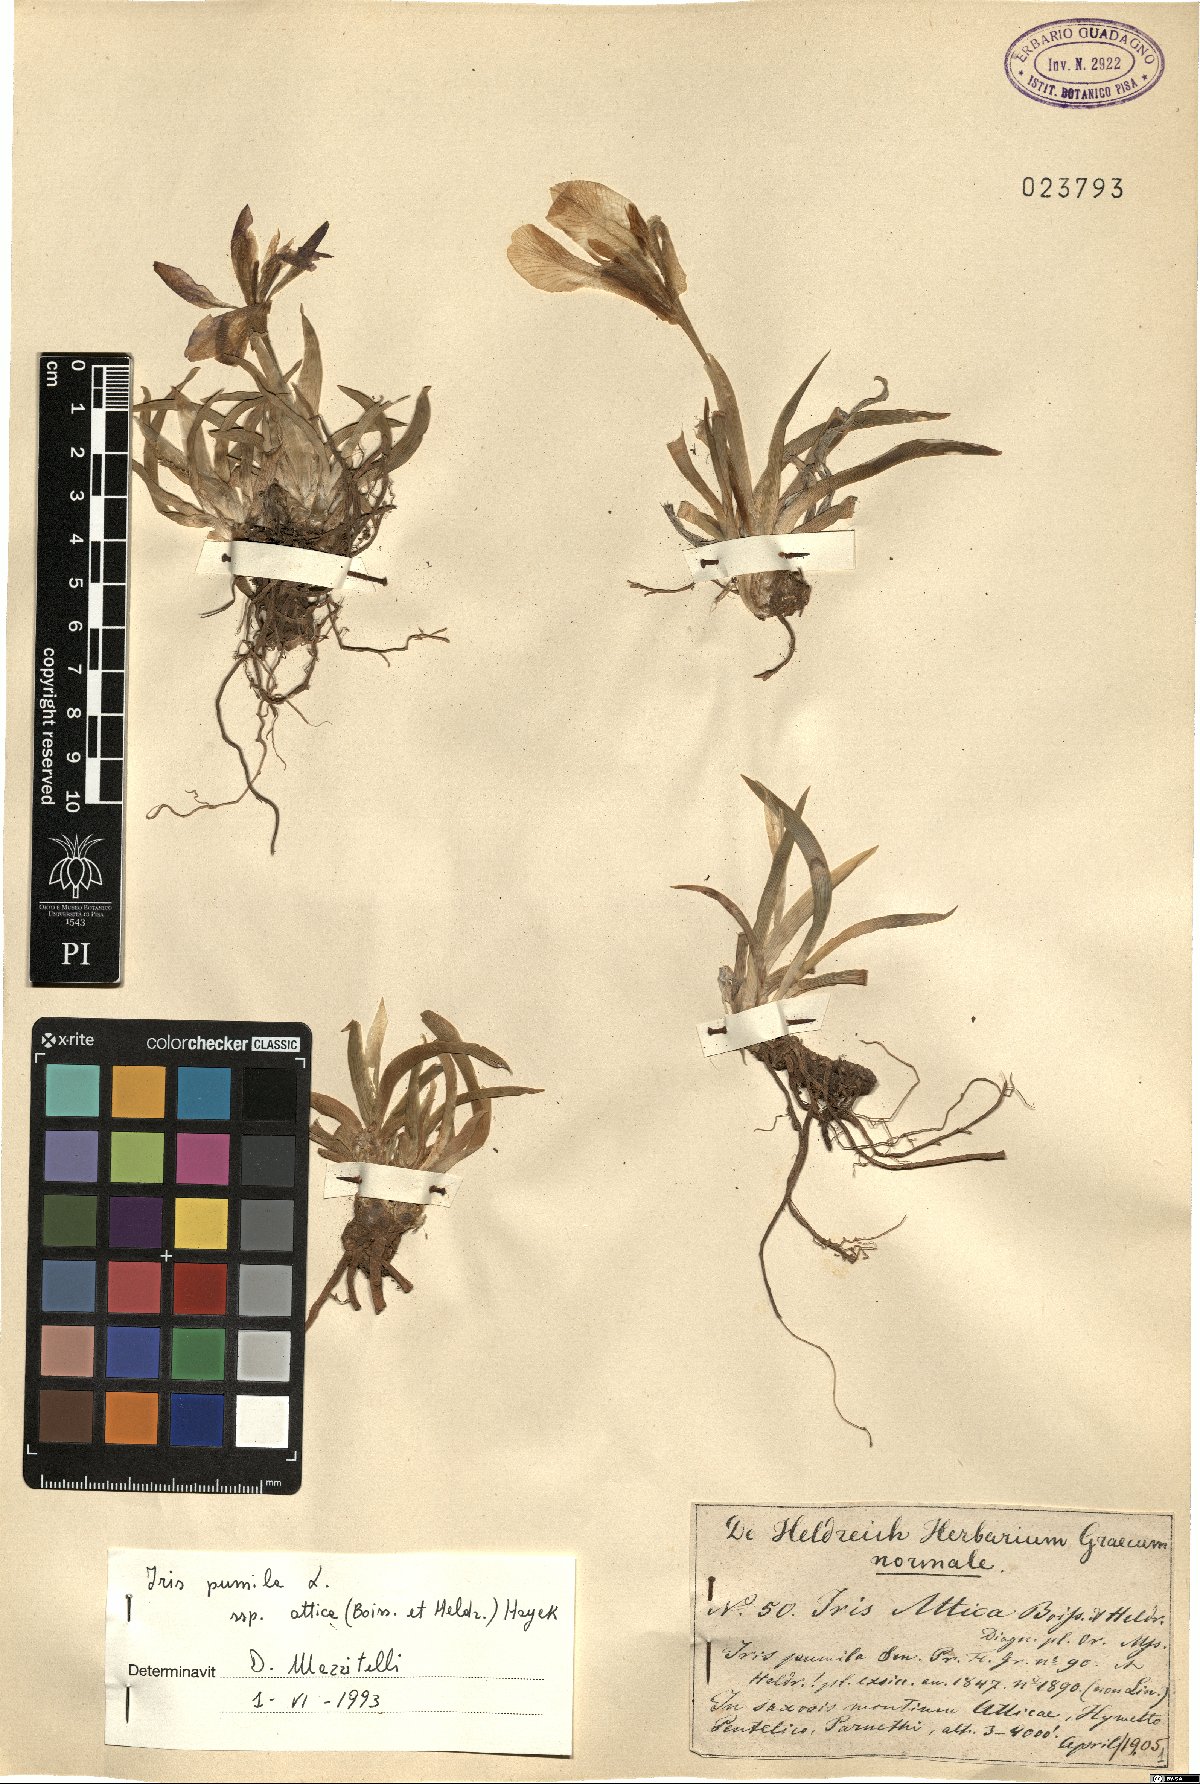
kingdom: Plantae
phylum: Tracheophyta
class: Liliopsida
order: Asparagales
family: Iridaceae
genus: Iris
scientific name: Iris pumila
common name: Dwarf iris
